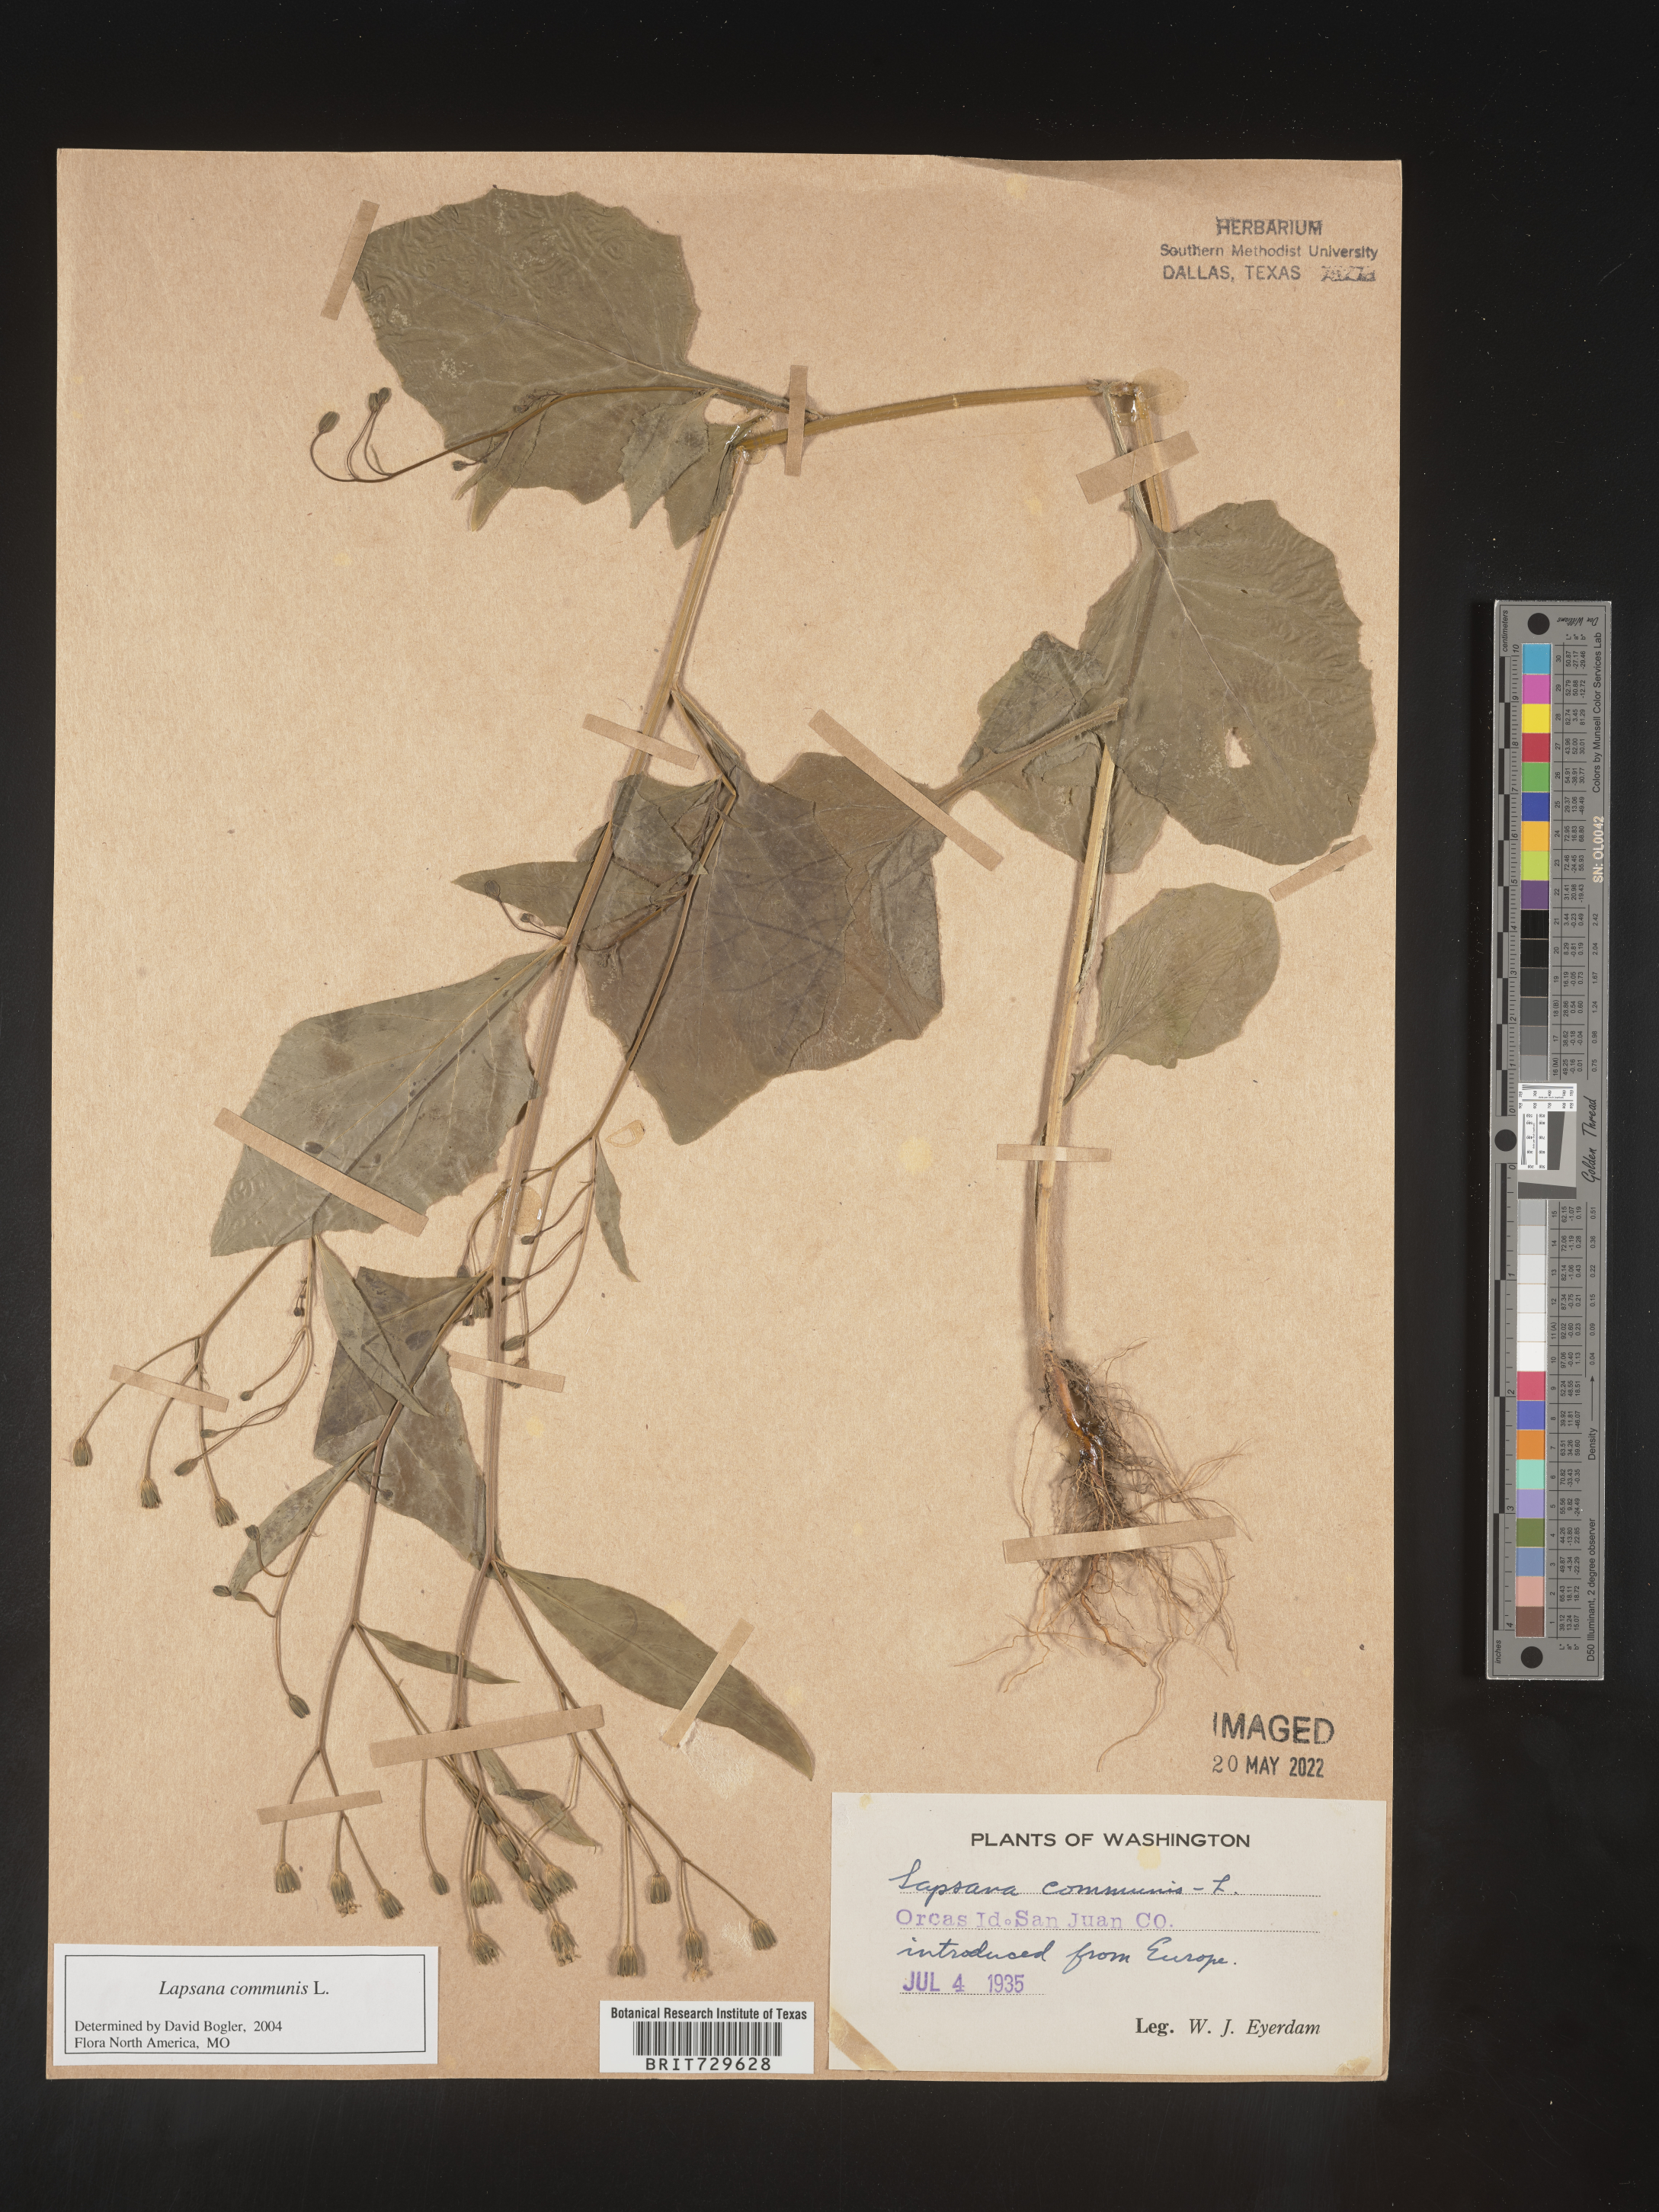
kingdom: Plantae
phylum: Tracheophyta
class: Magnoliopsida
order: Asterales
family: Asteraceae
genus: Lapsana
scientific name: Lapsana
